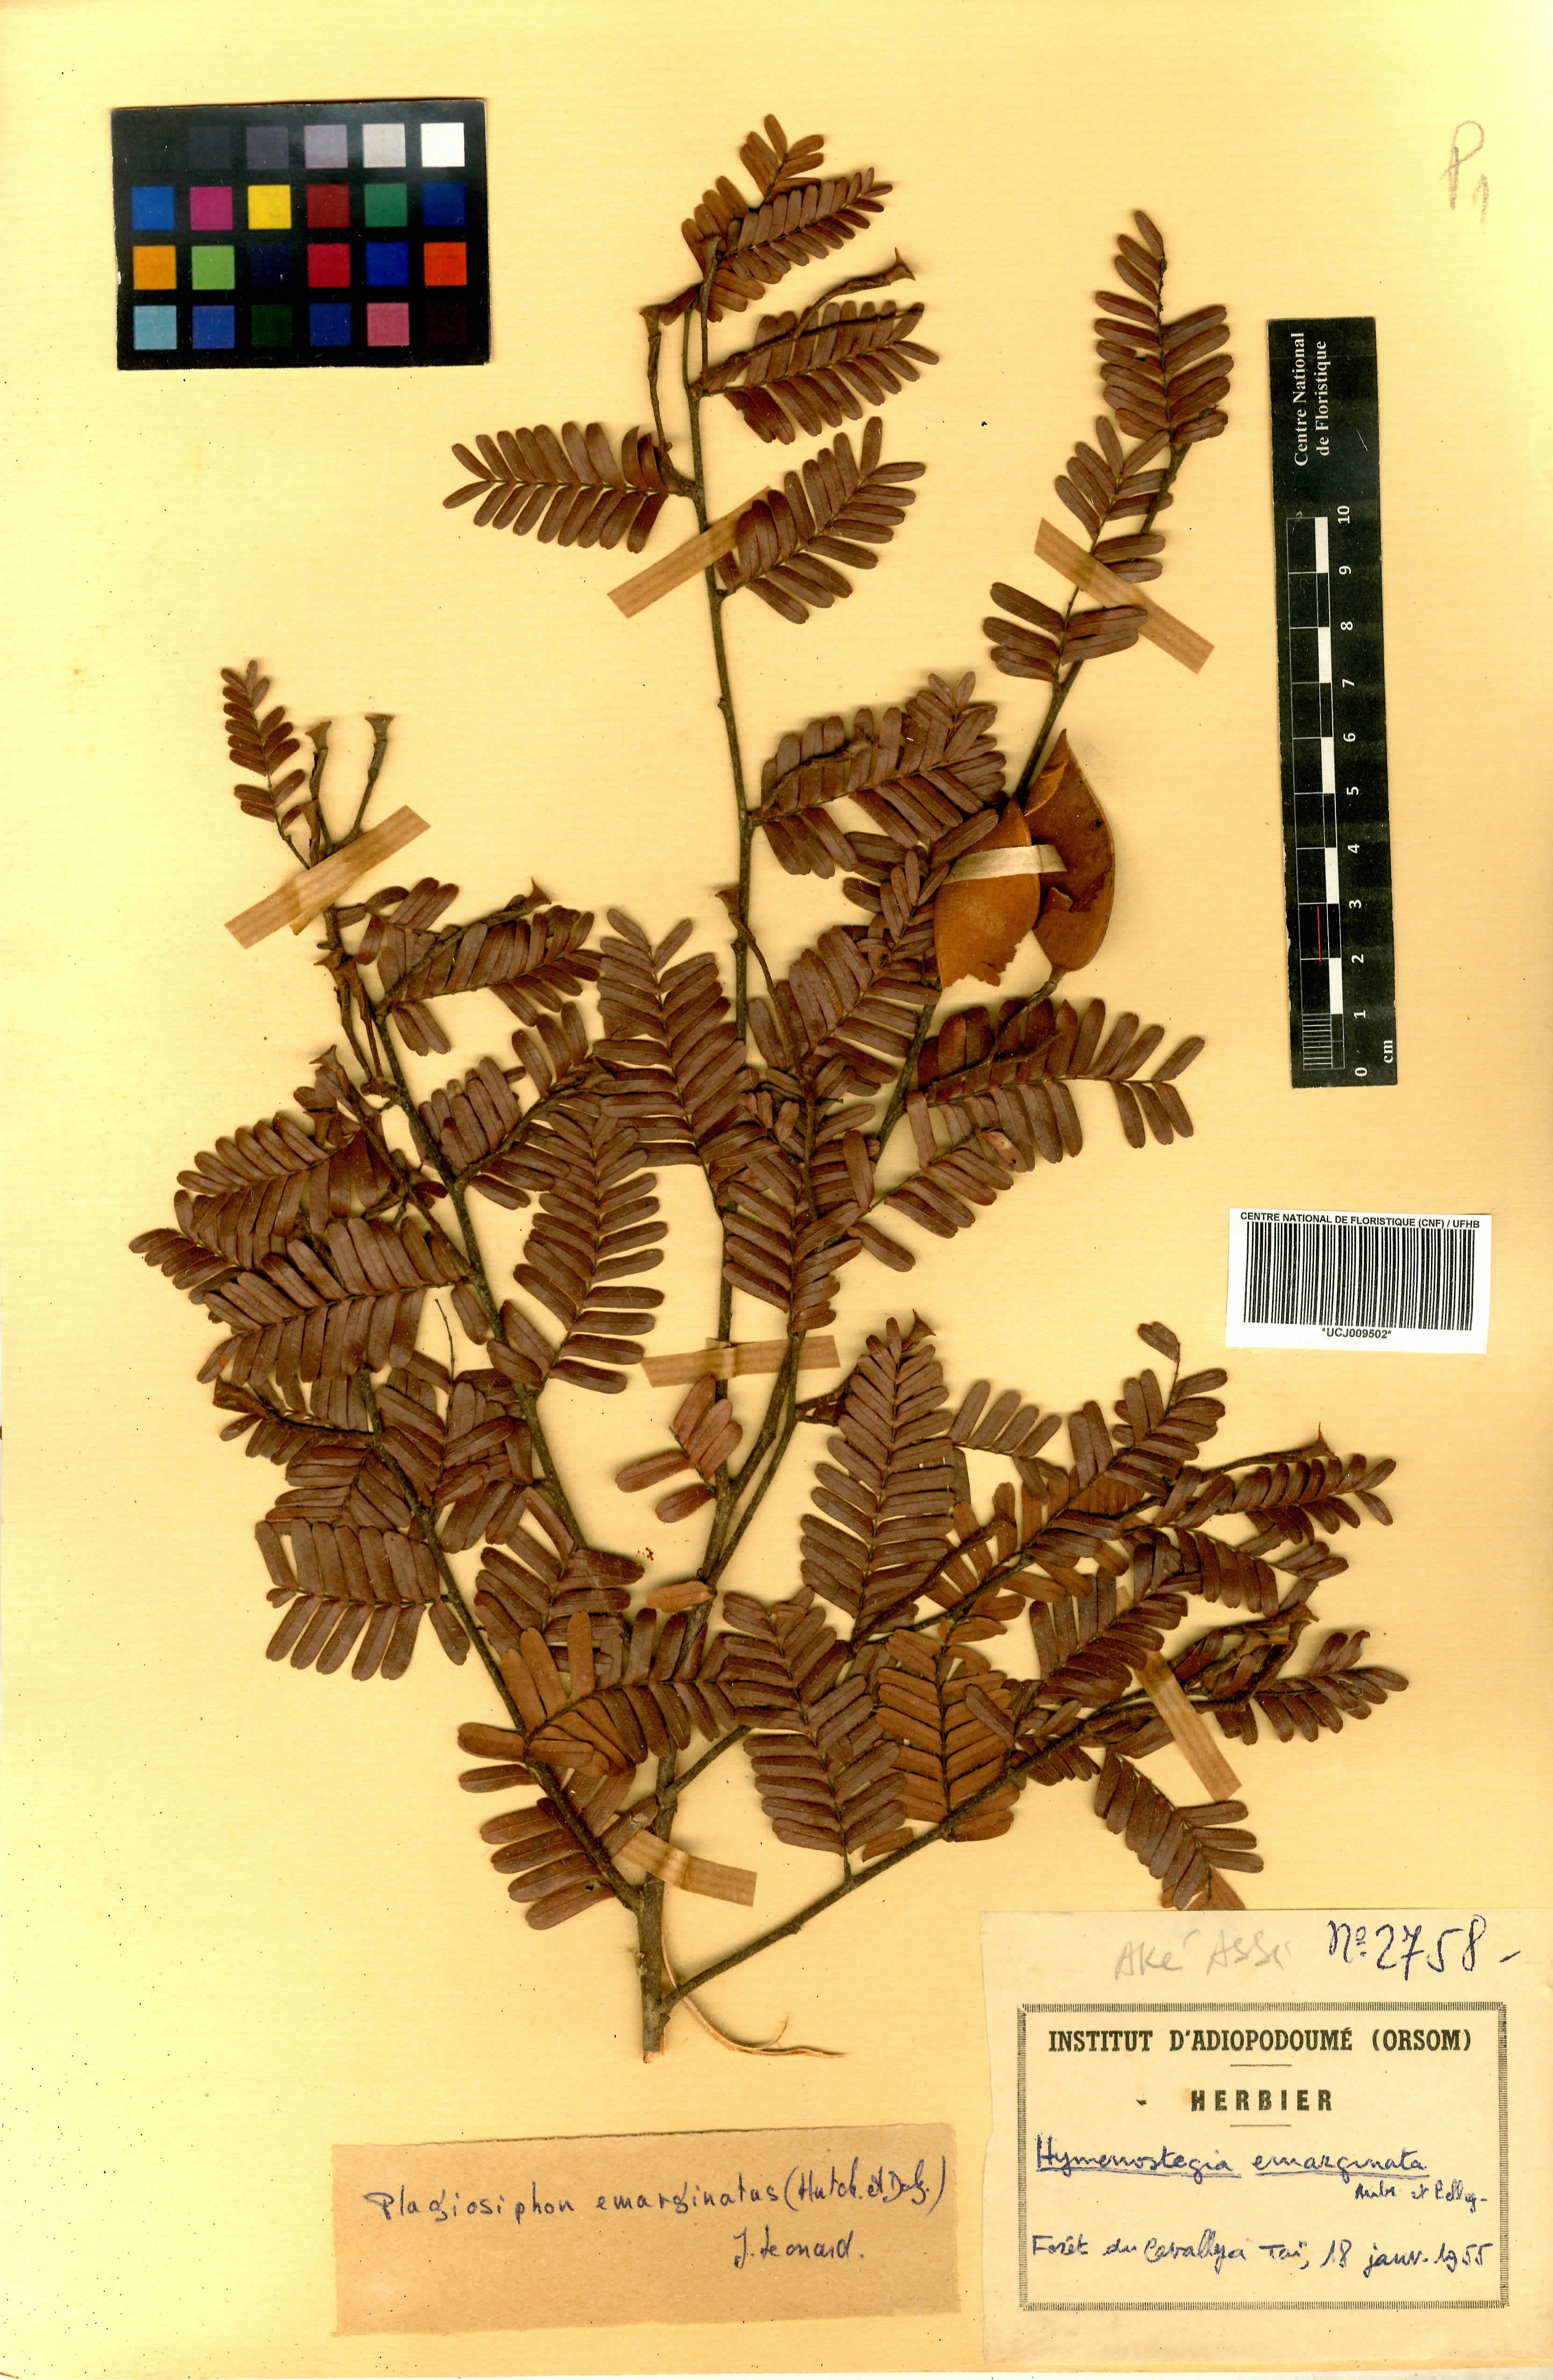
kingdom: Plantae
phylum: Tracheophyta
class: Magnoliopsida
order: Fabales
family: Fabaceae
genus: Plagiosiphon
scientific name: Plagiosiphon emarginatus
